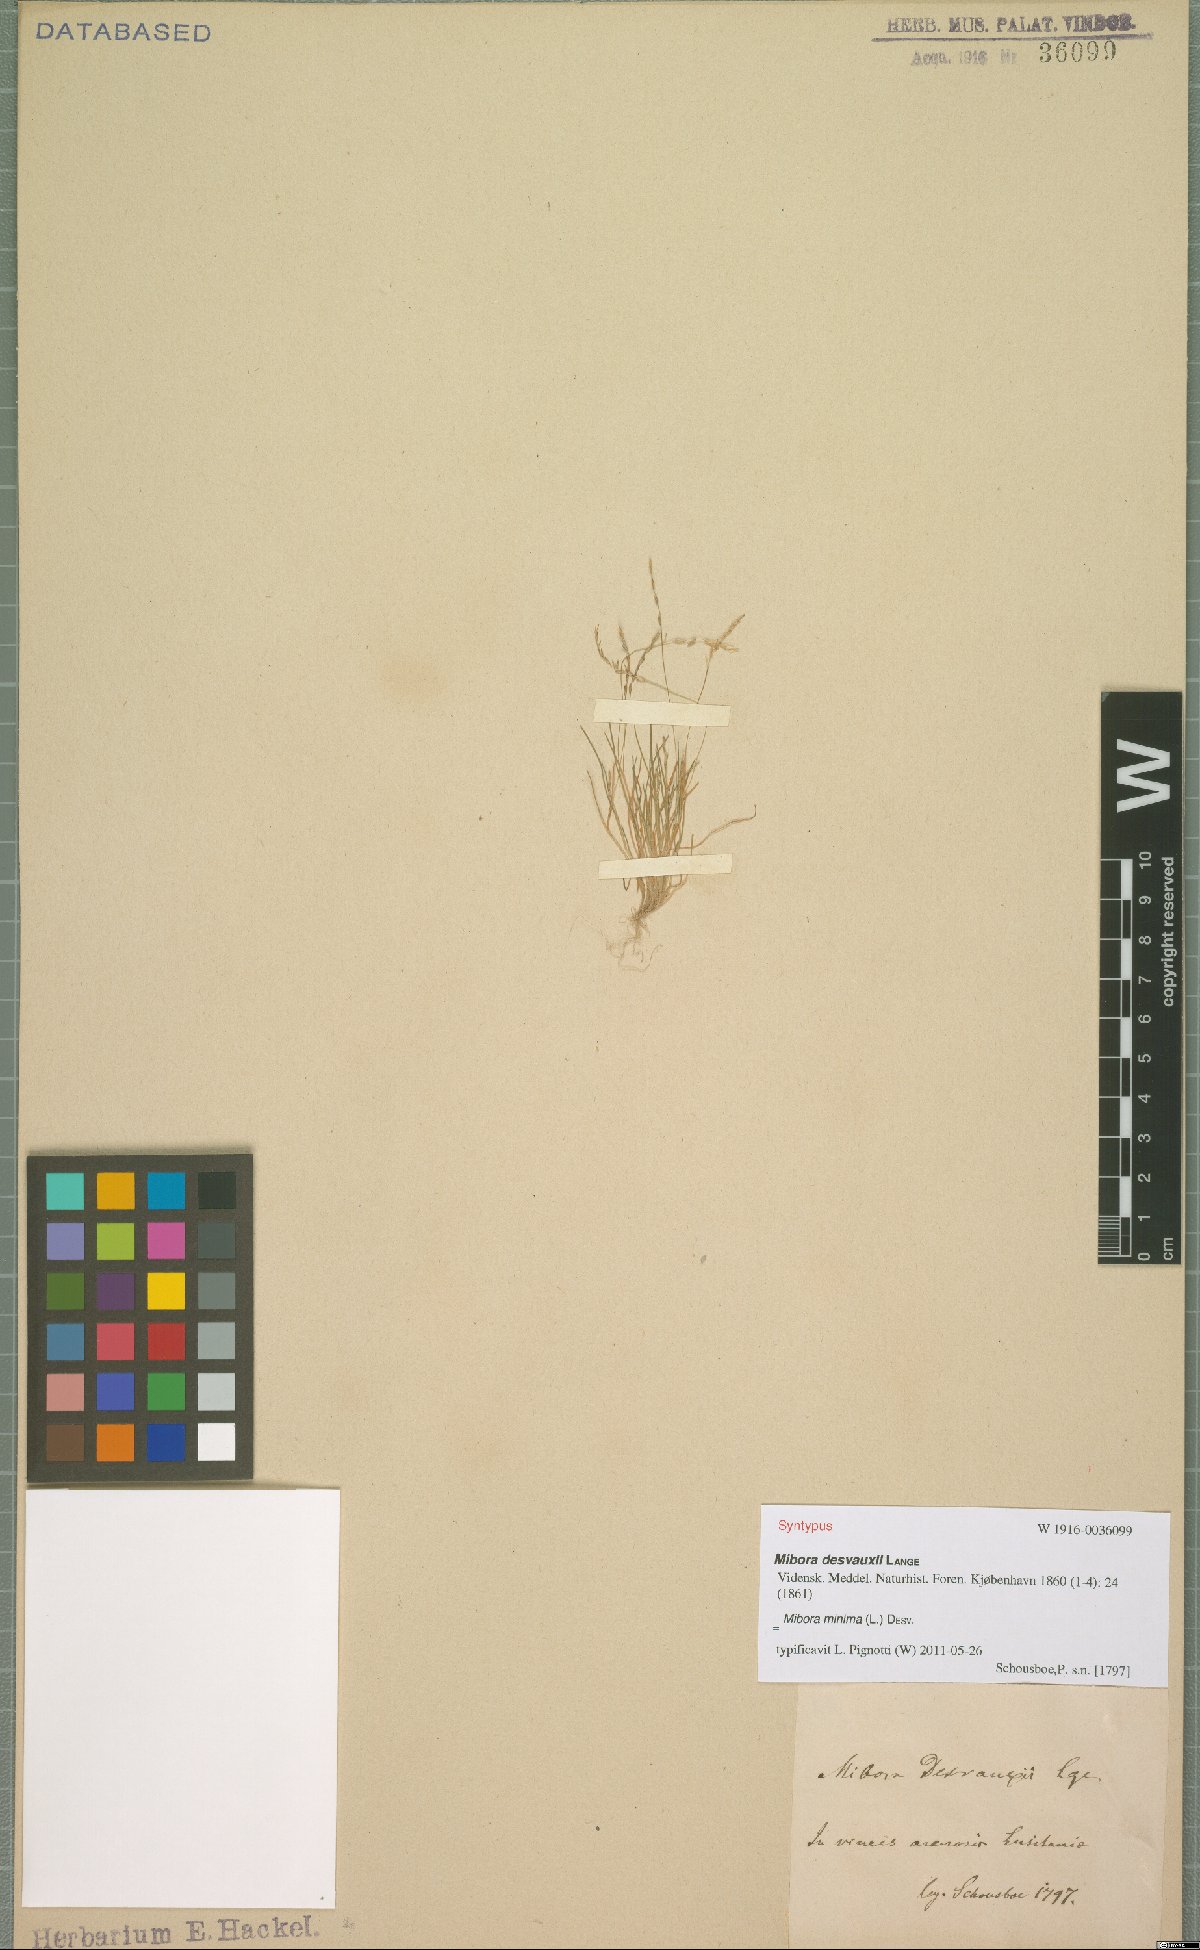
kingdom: Plantae
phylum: Tracheophyta
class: Liliopsida
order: Poales
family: Poaceae
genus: Mibora
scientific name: Mibora minima
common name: Early sand-grass
